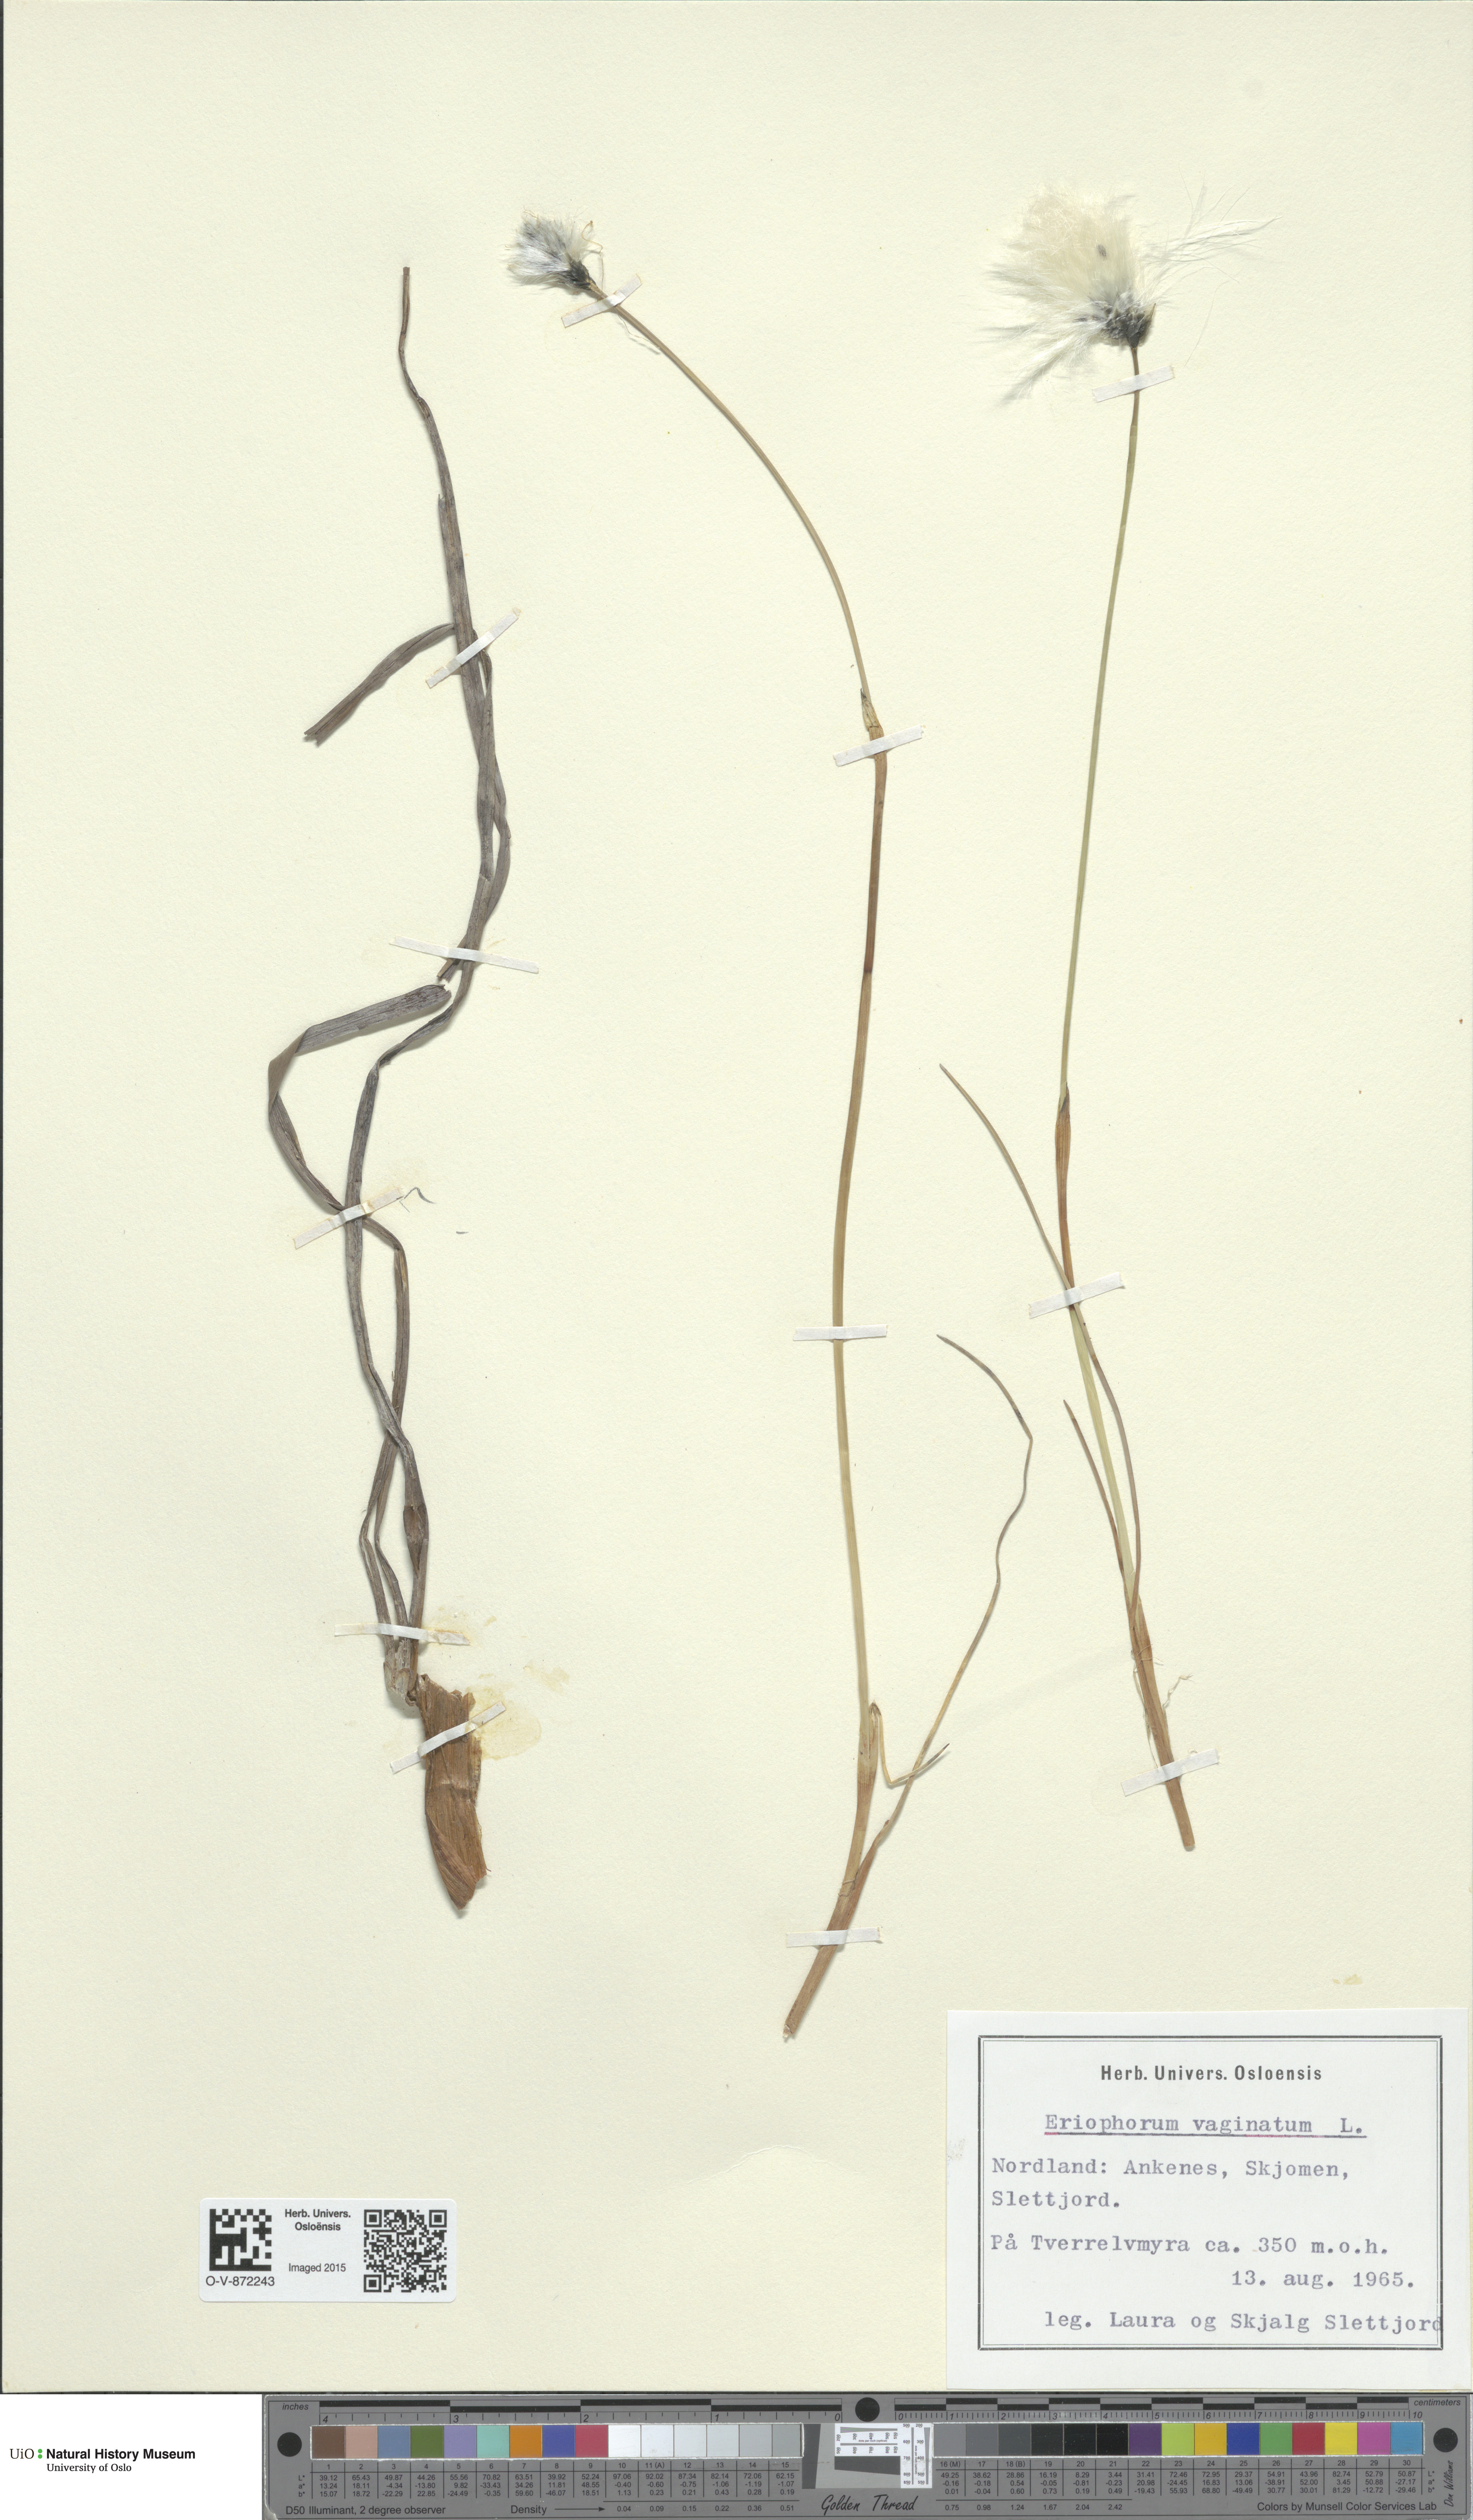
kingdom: Plantae
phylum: Tracheophyta
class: Liliopsida
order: Poales
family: Cyperaceae
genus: Eriophorum
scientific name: Eriophorum vaginatum
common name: Hare's-tail cottongrass
